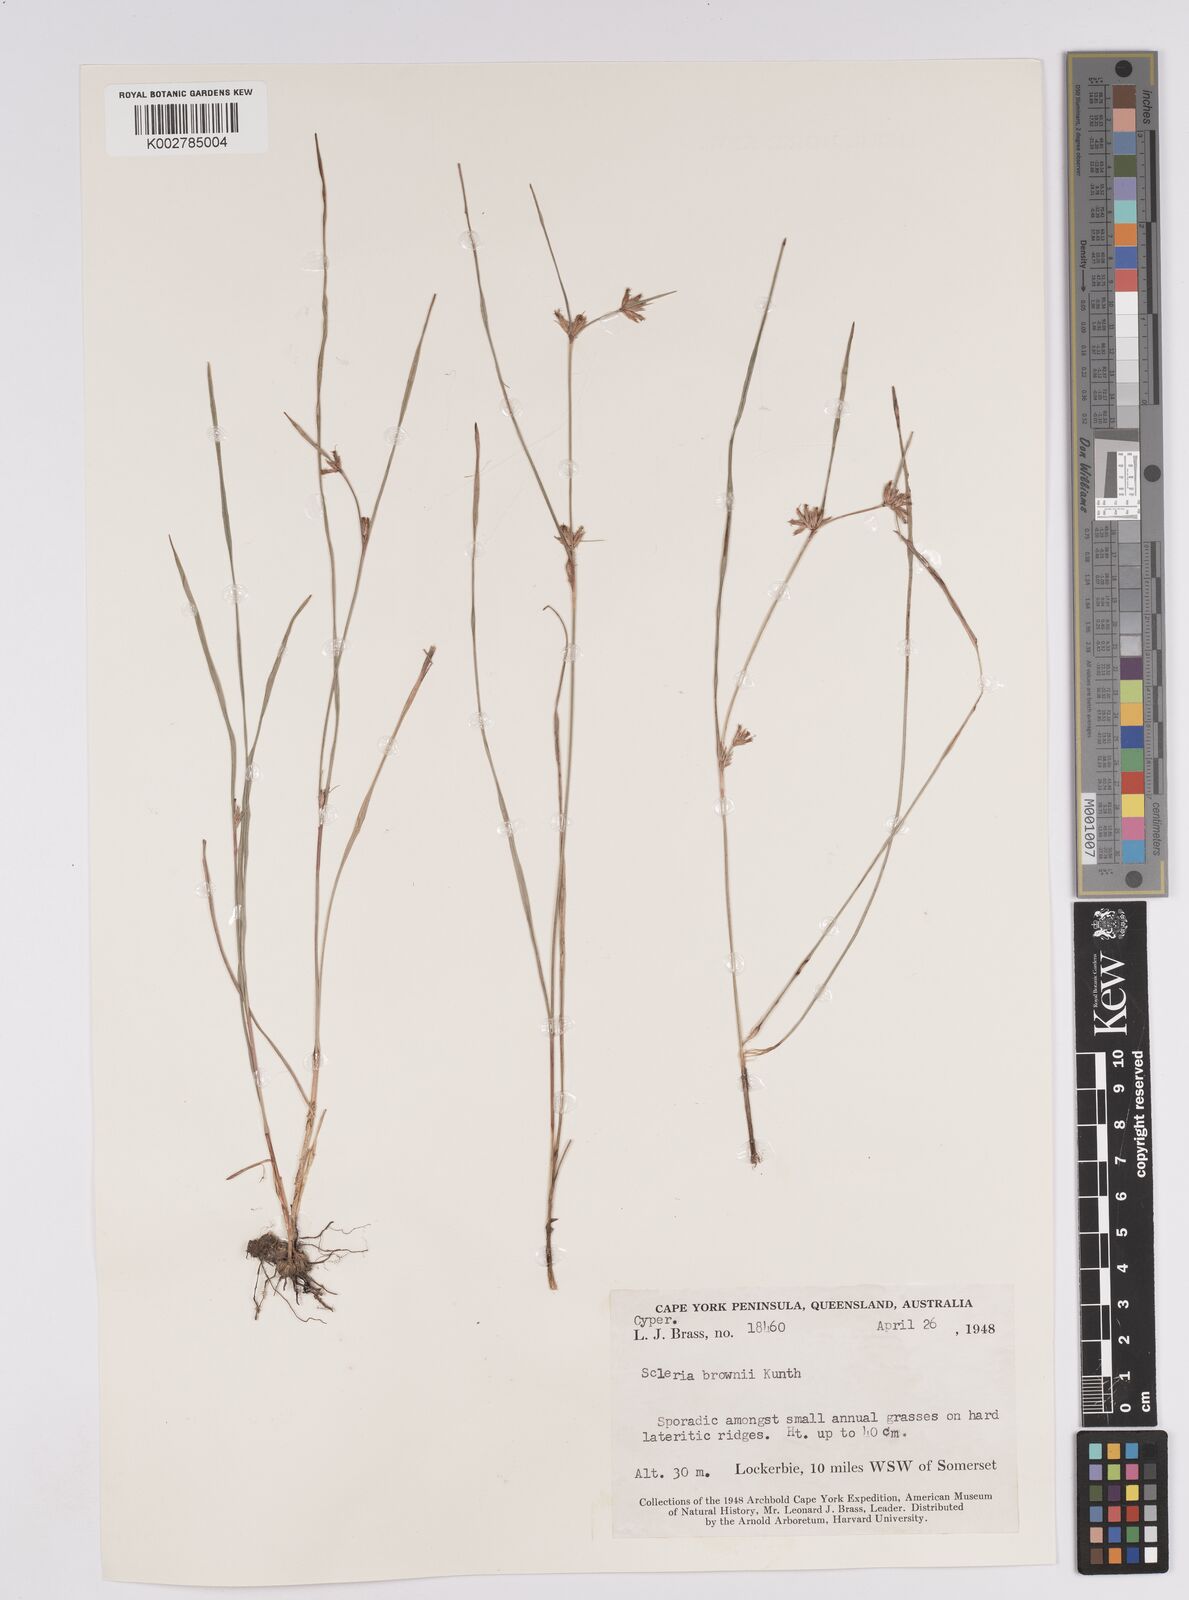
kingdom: Plantae
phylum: Tracheophyta
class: Liliopsida
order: Poales
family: Cyperaceae
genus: Scleria
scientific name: Scleria brownii
